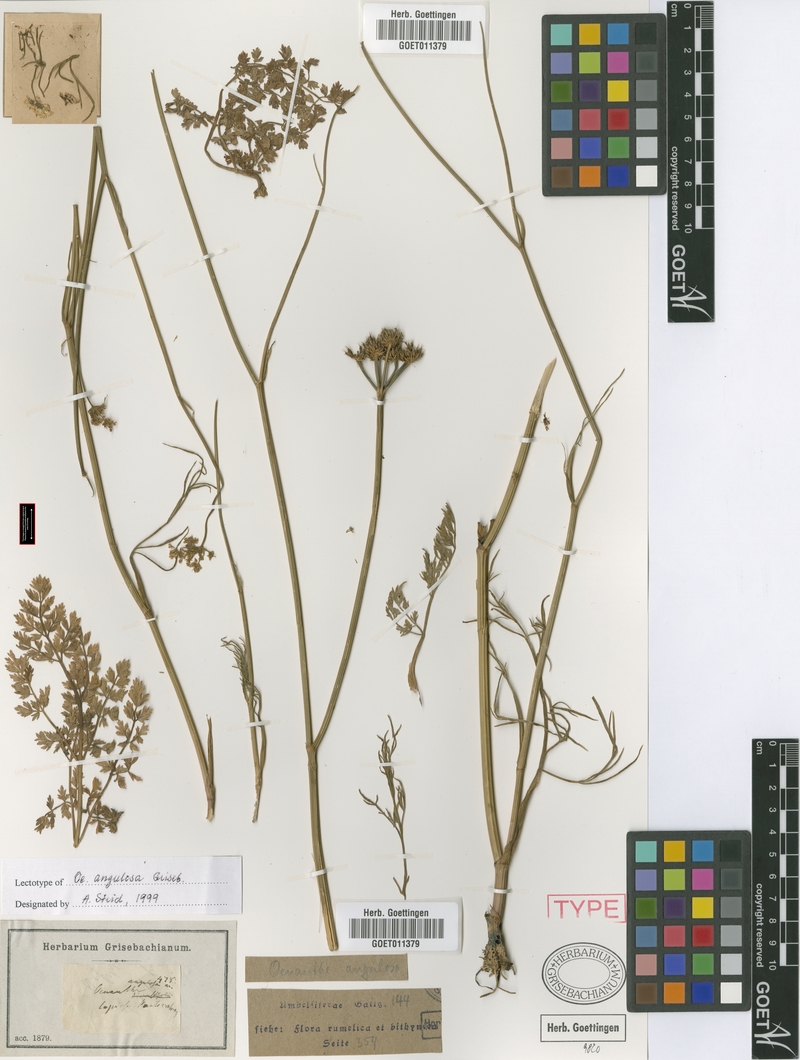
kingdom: Plantae
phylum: Tracheophyta
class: Magnoliopsida
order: Apiales
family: Apiaceae
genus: Oenanthe
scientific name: Oenanthe pimpinelloides
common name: Corky-fruited water-dropwort
